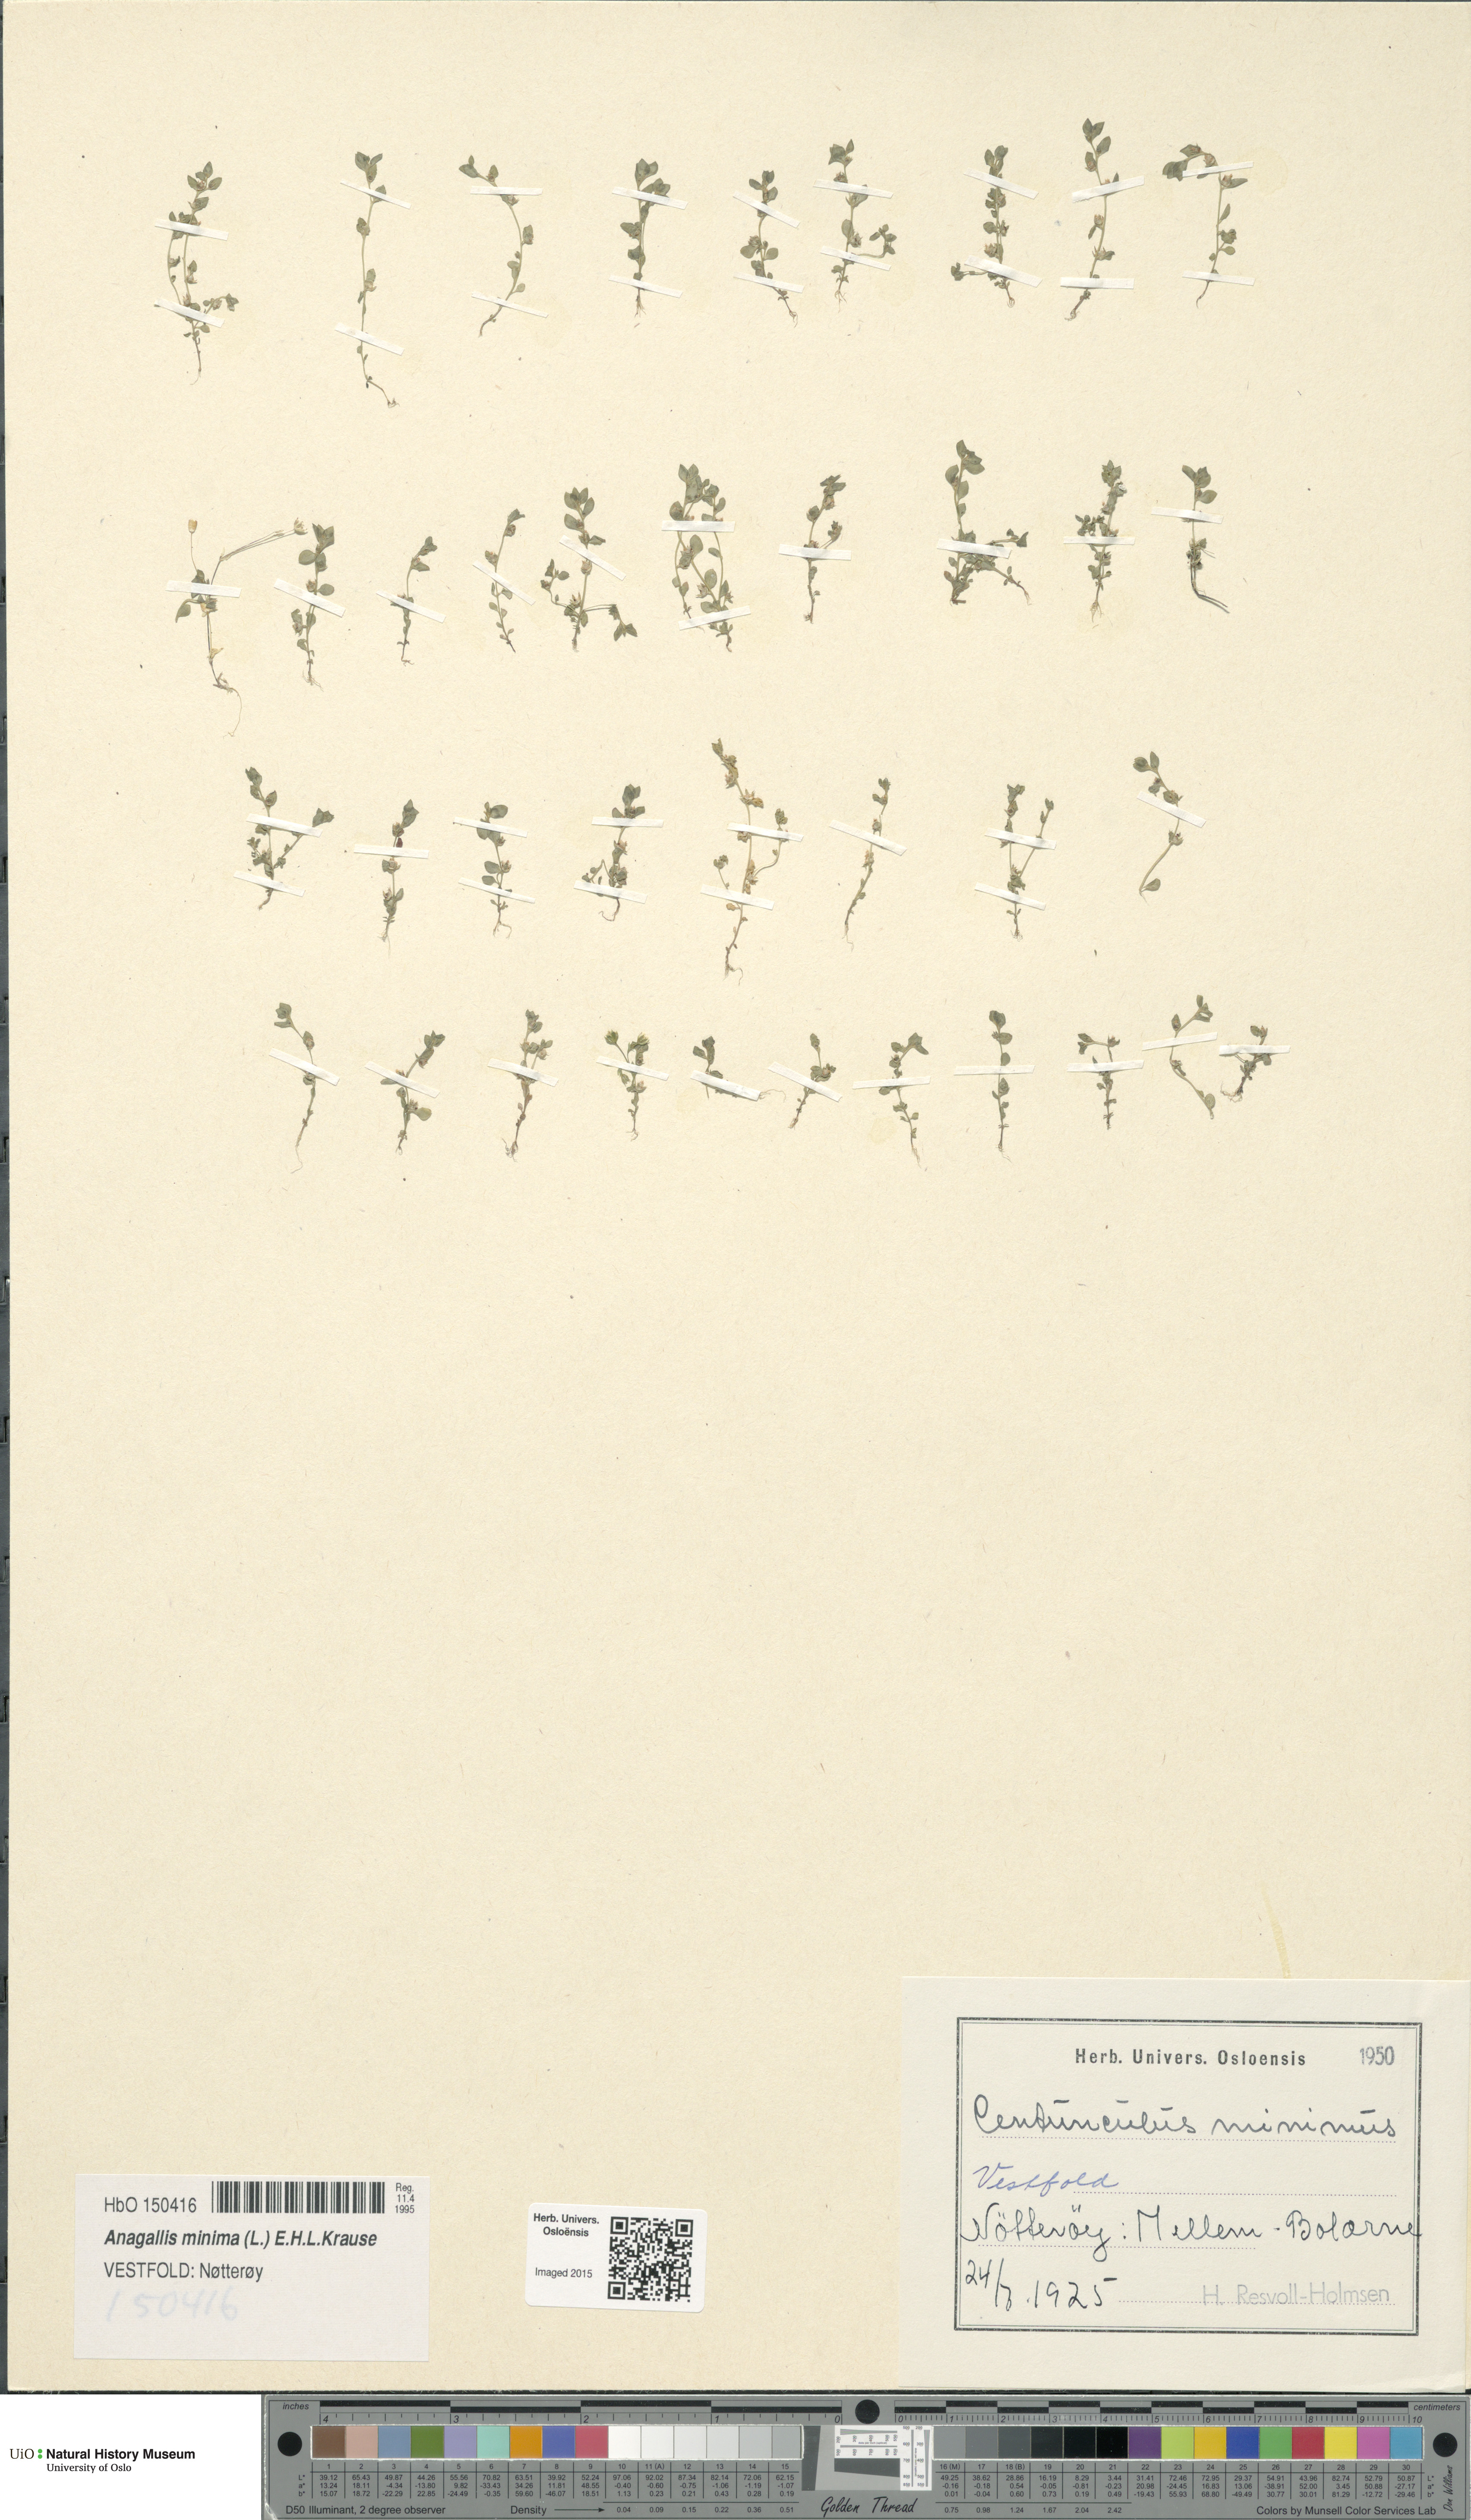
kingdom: Plantae
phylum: Tracheophyta
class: Magnoliopsida
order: Ericales
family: Primulaceae
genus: Lysimachia
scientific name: Lysimachia minima
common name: Chaffweed
